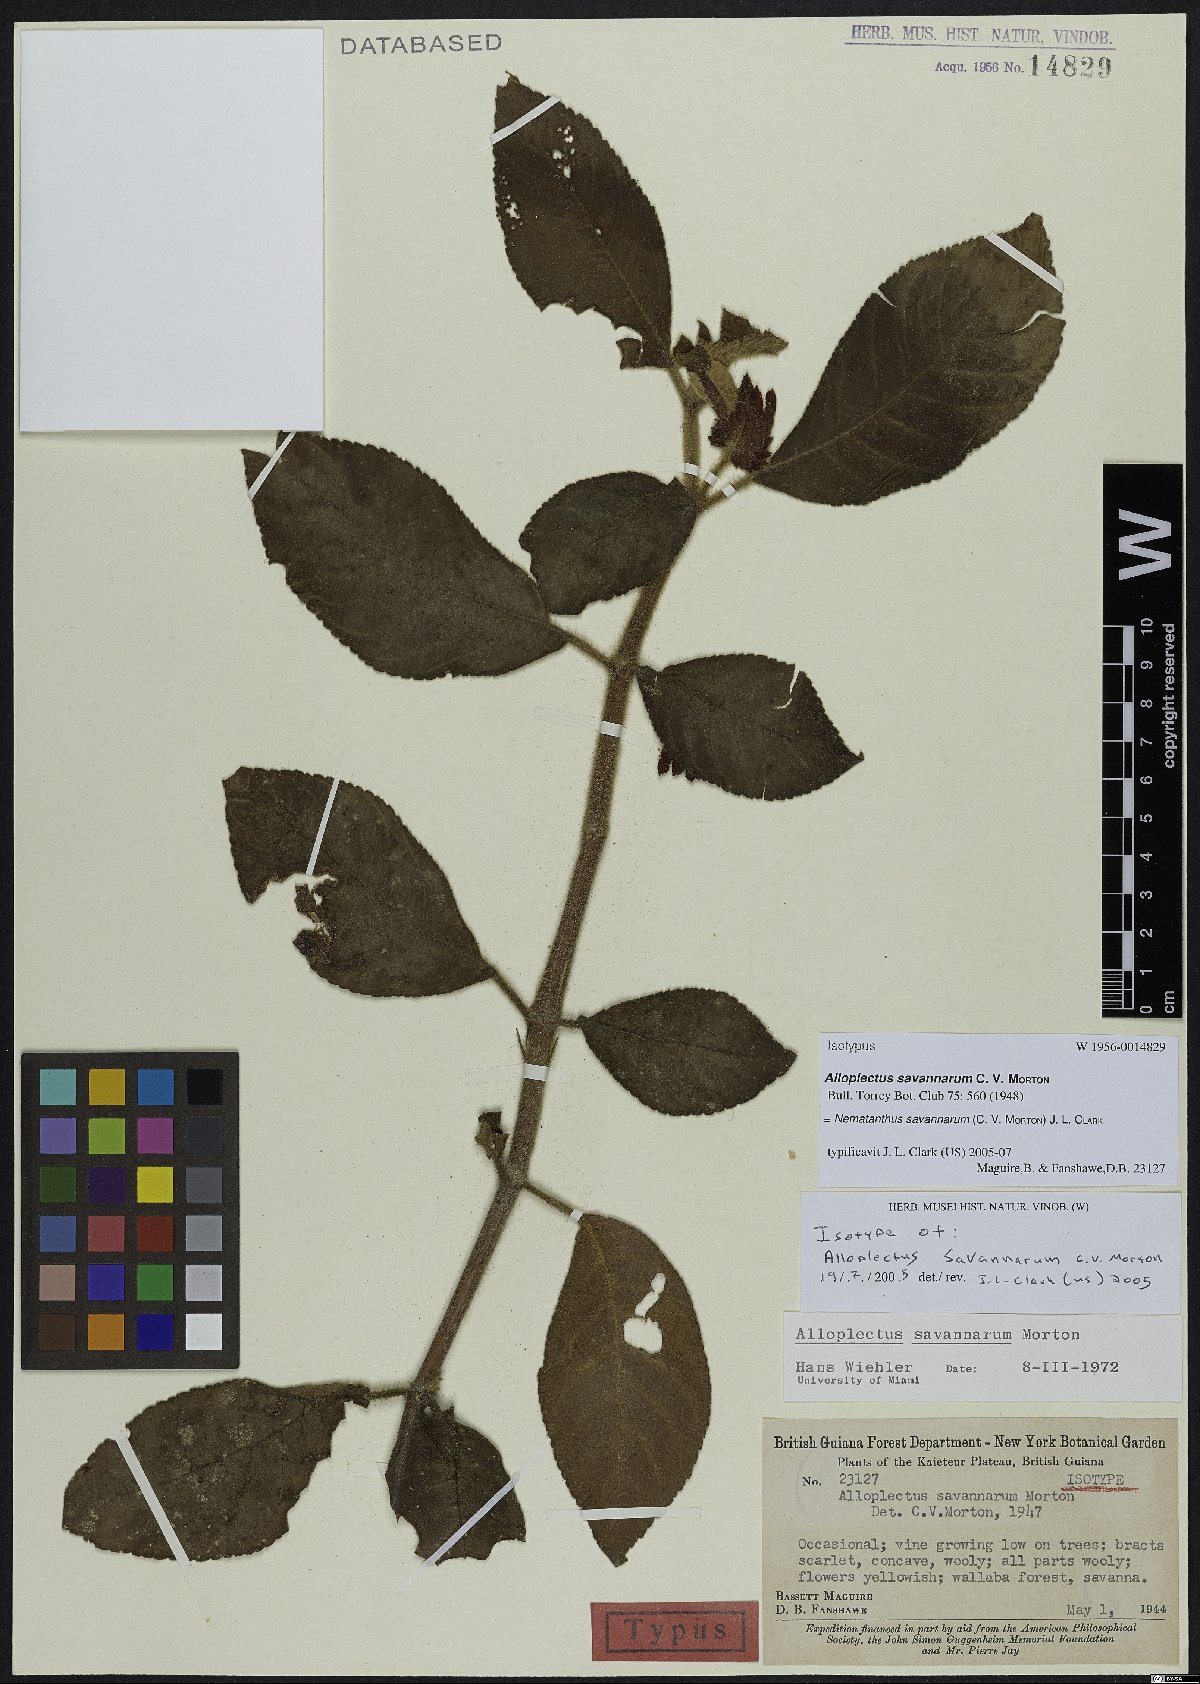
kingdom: Plantae
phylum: Tracheophyta
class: Magnoliopsida
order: Lamiales
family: Gesneriaceae
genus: Lesia
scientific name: Lesia savannarum
